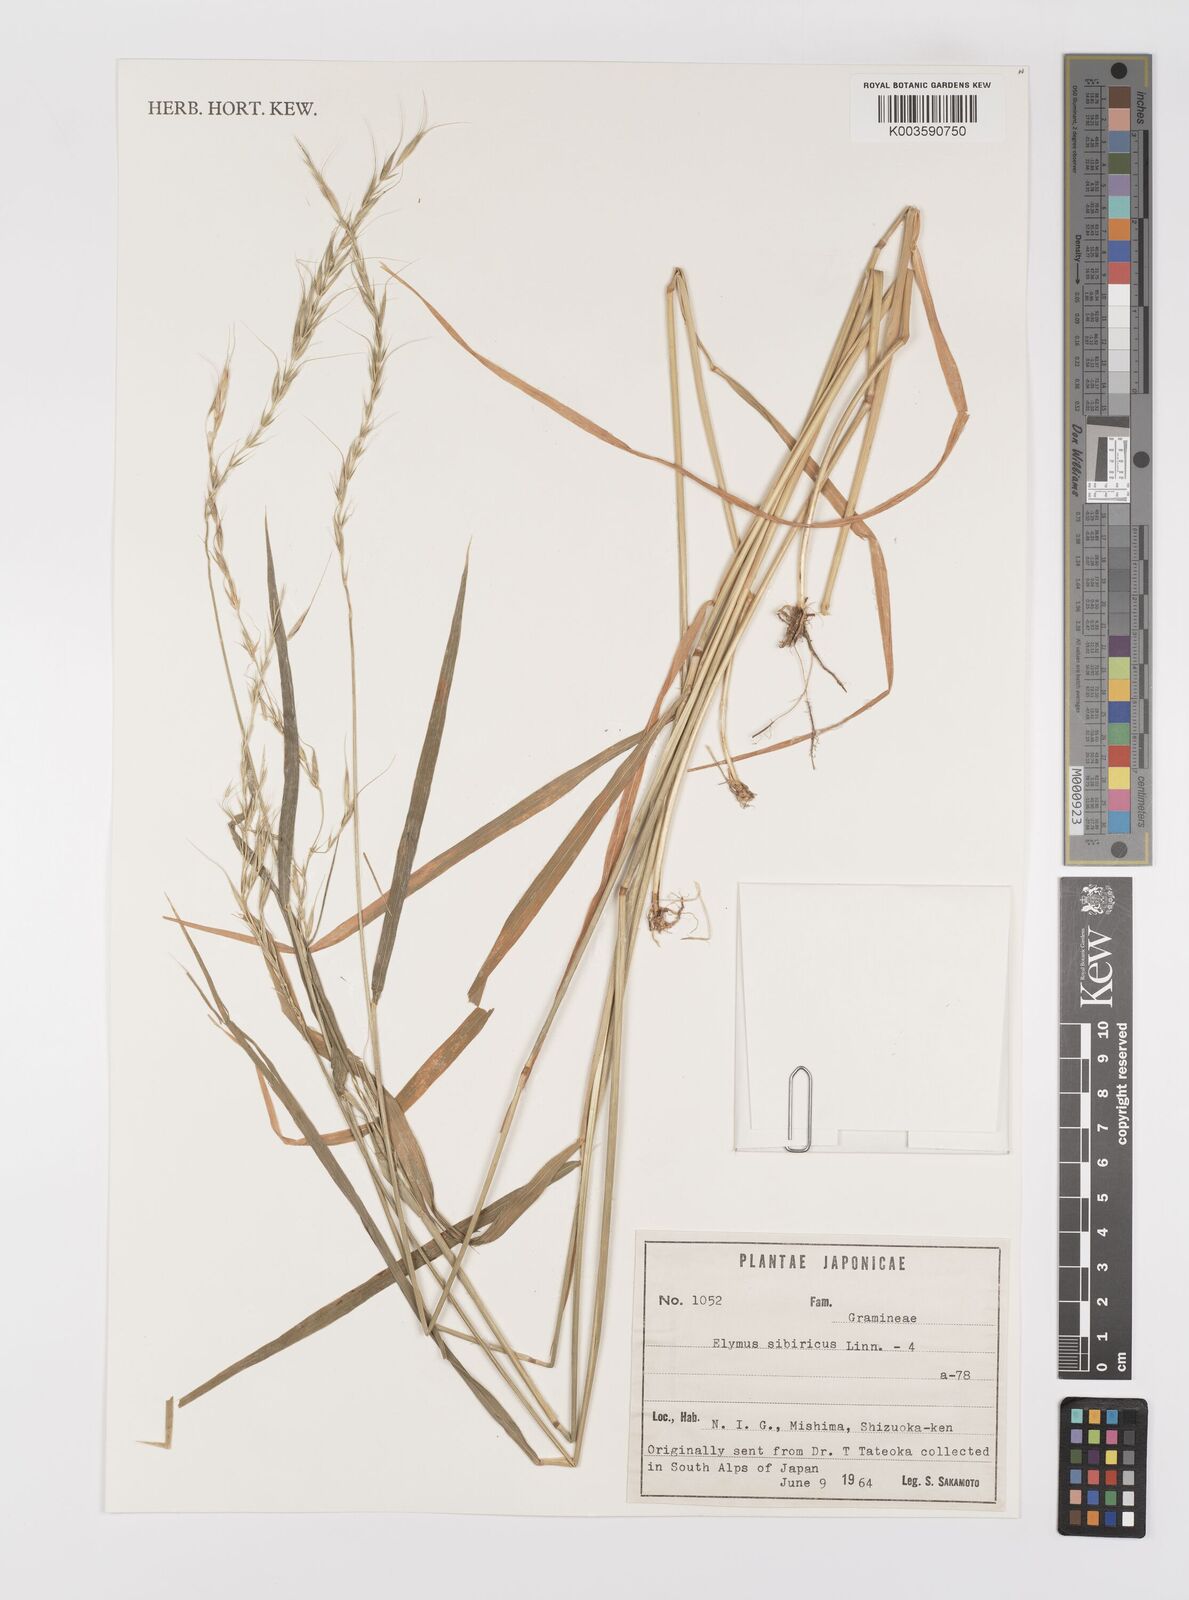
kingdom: Plantae
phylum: Tracheophyta
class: Liliopsida
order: Poales
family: Poaceae
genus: Elymus
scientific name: Elymus sibiricus
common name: Siberian wildrye
